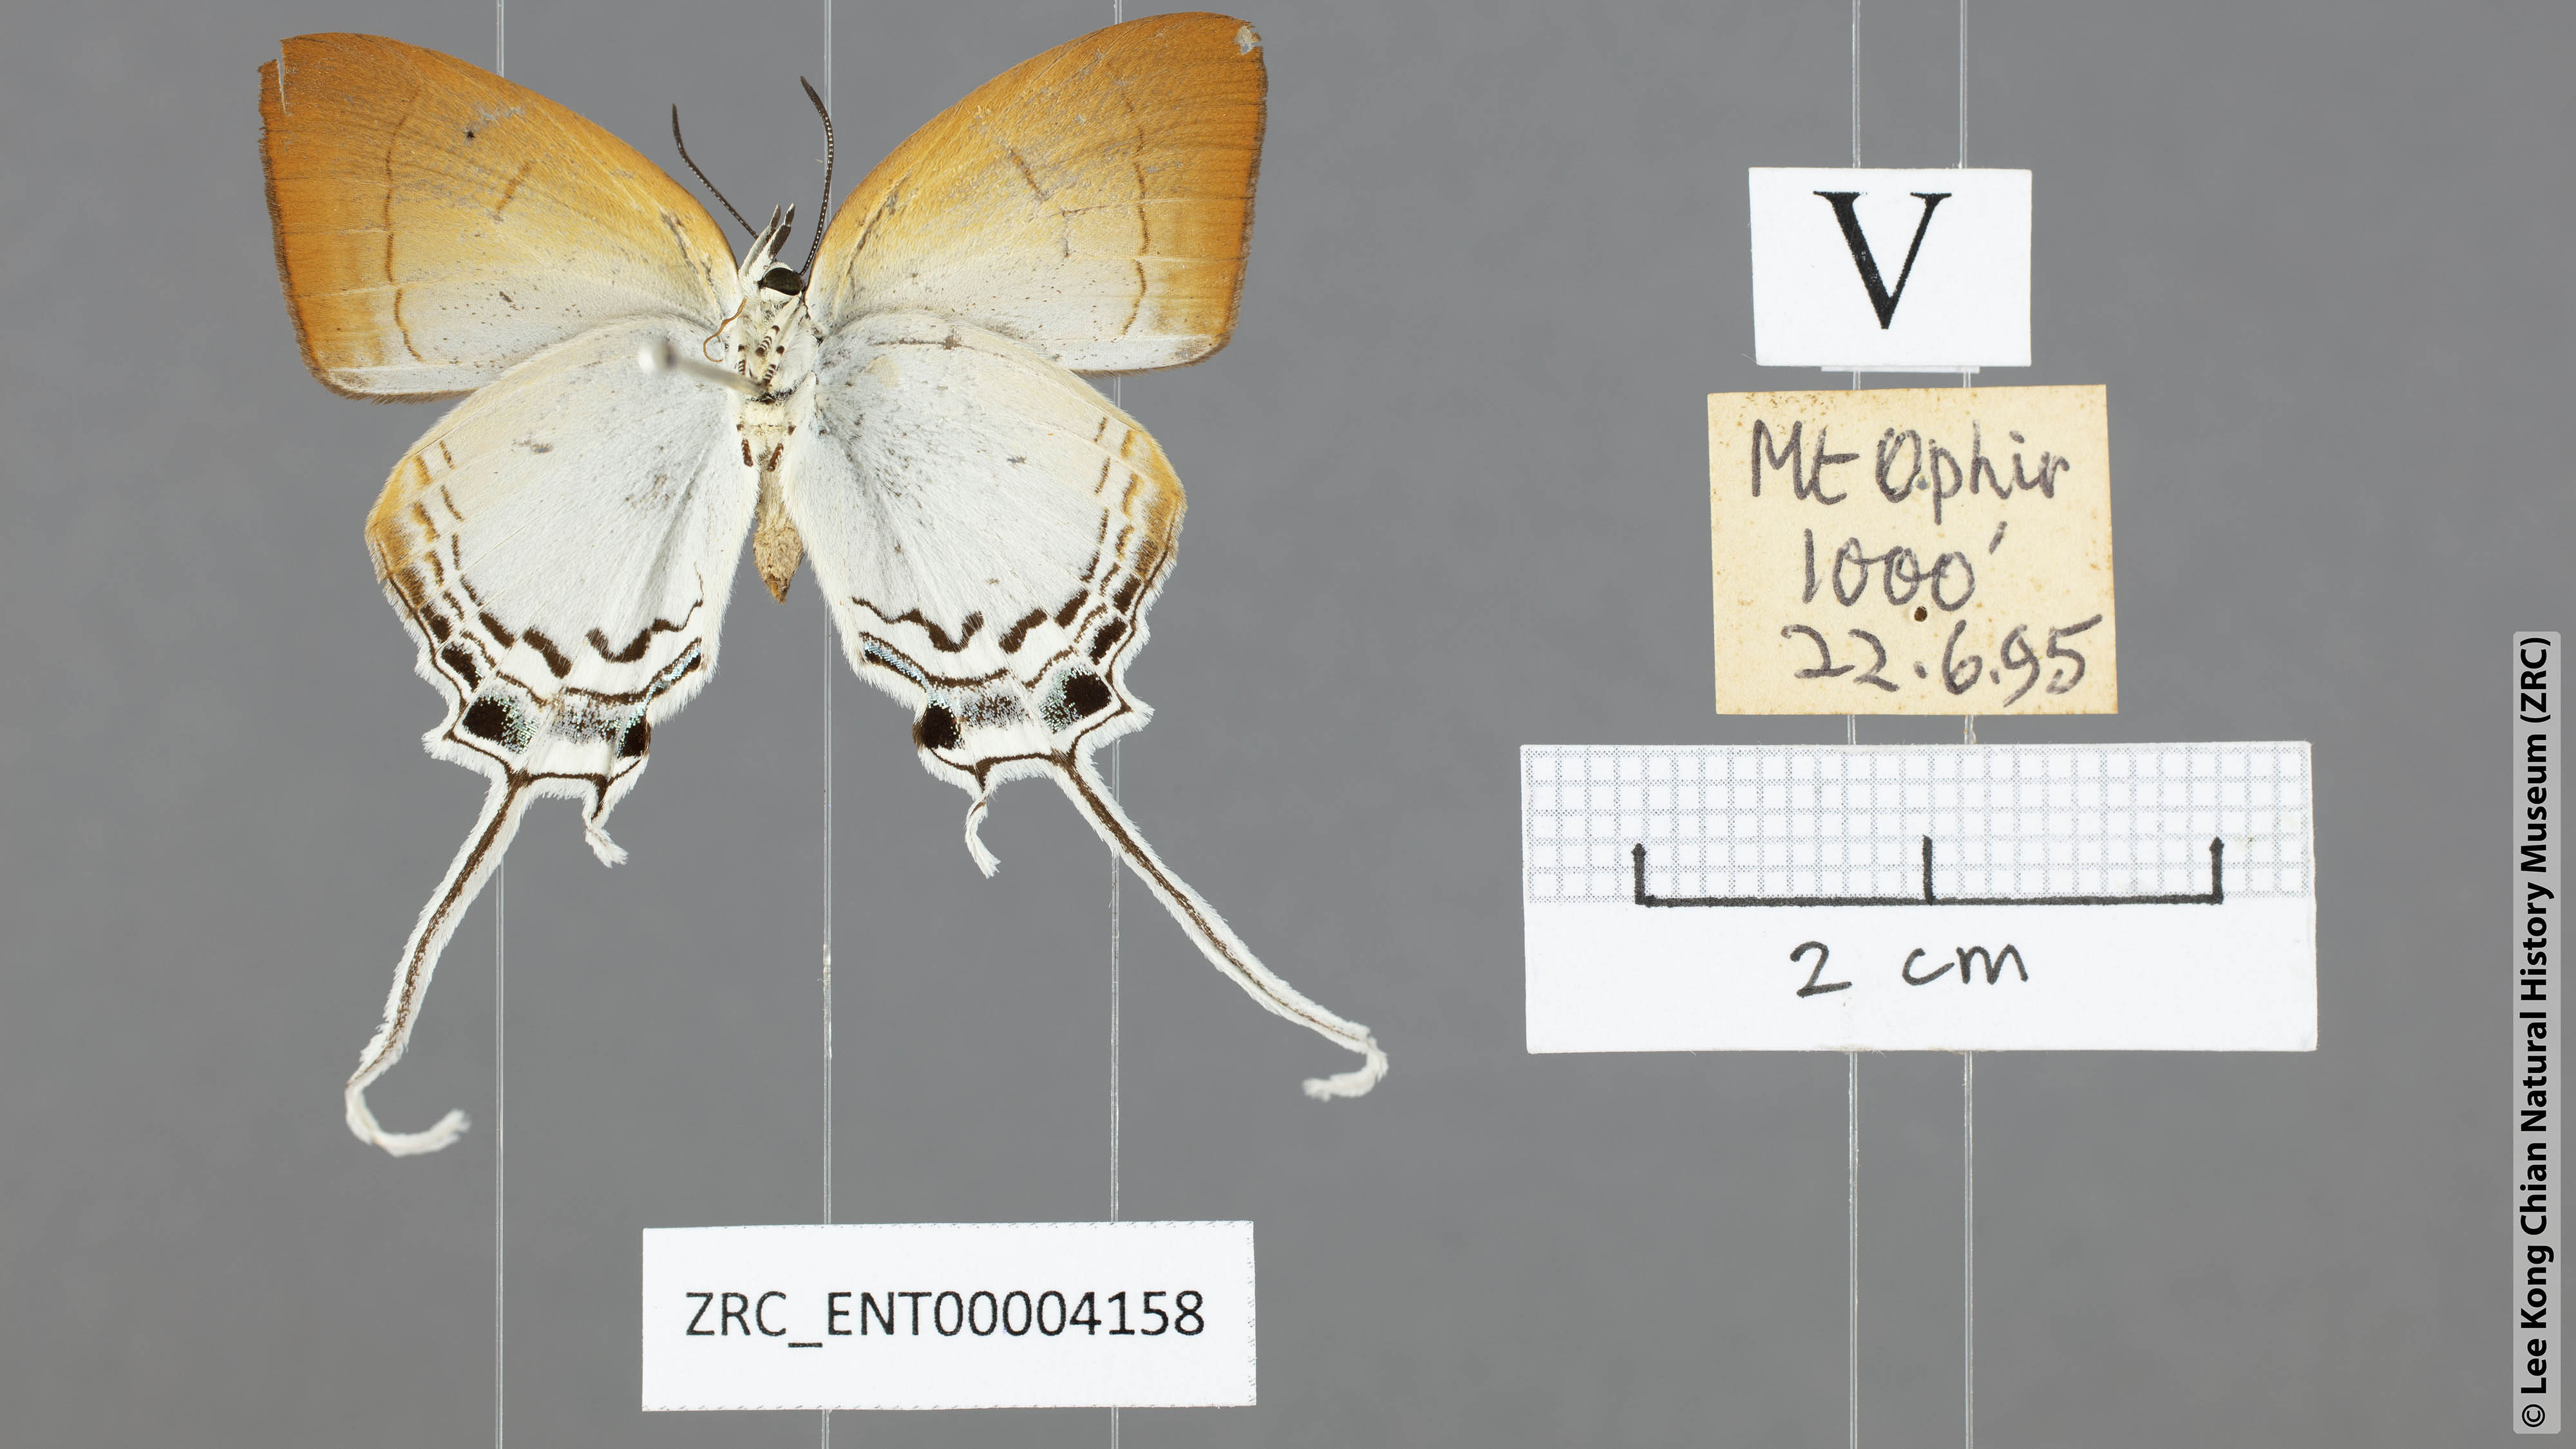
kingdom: Animalia
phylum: Arthropoda
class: Insecta
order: Lepidoptera
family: Lycaenidae
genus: Cheritra
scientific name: Cheritra freja
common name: Common imperial
